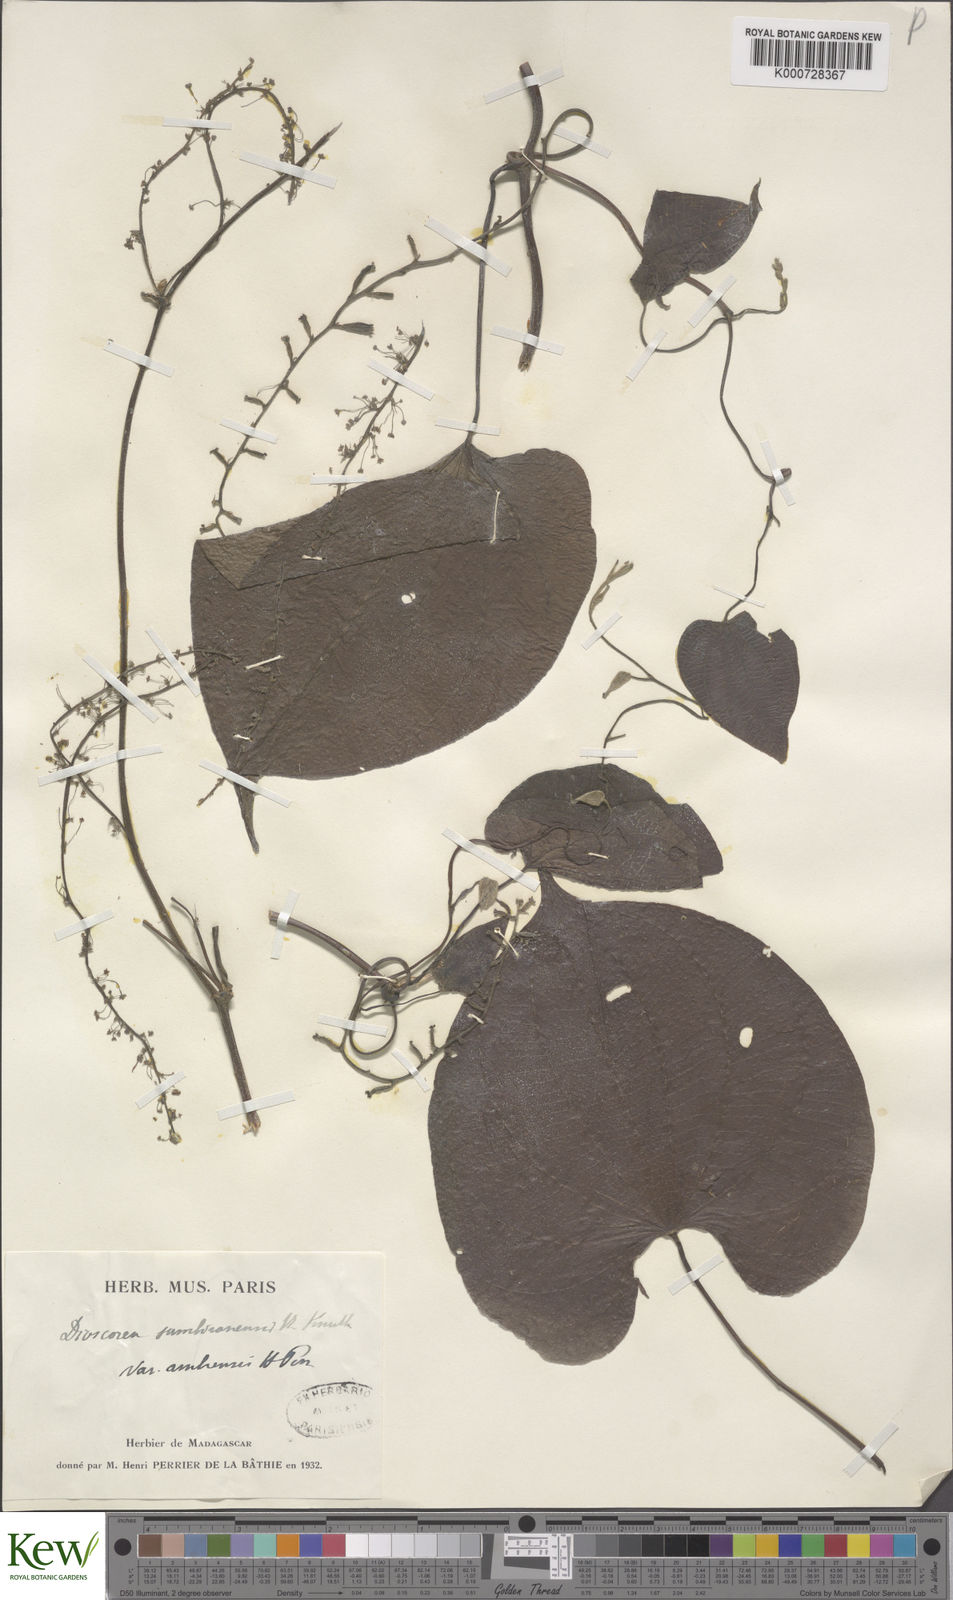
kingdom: Plantae
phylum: Tracheophyta
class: Liliopsida
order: Dioscoreales
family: Dioscoreaceae
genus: Dioscorea
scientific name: Dioscorea sambiranensis
